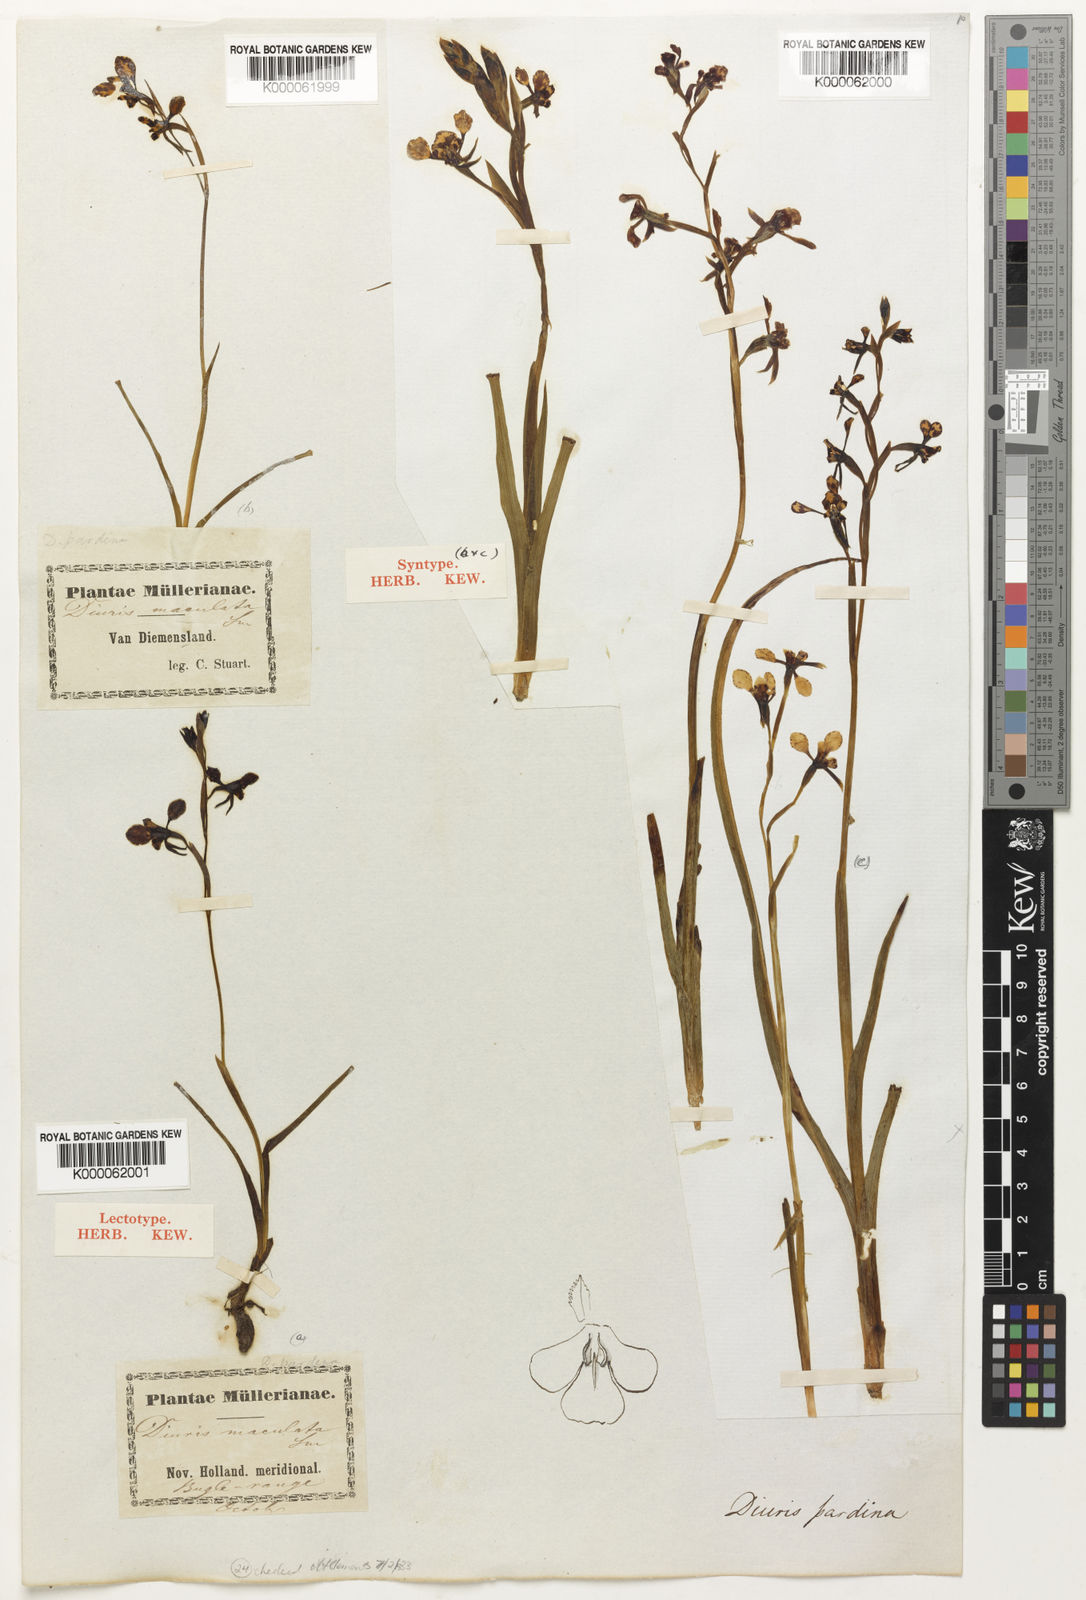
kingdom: Plantae
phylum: Tracheophyta
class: Liliopsida
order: Asparagales
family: Orchidaceae
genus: Diuris
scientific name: Diuris pardina
